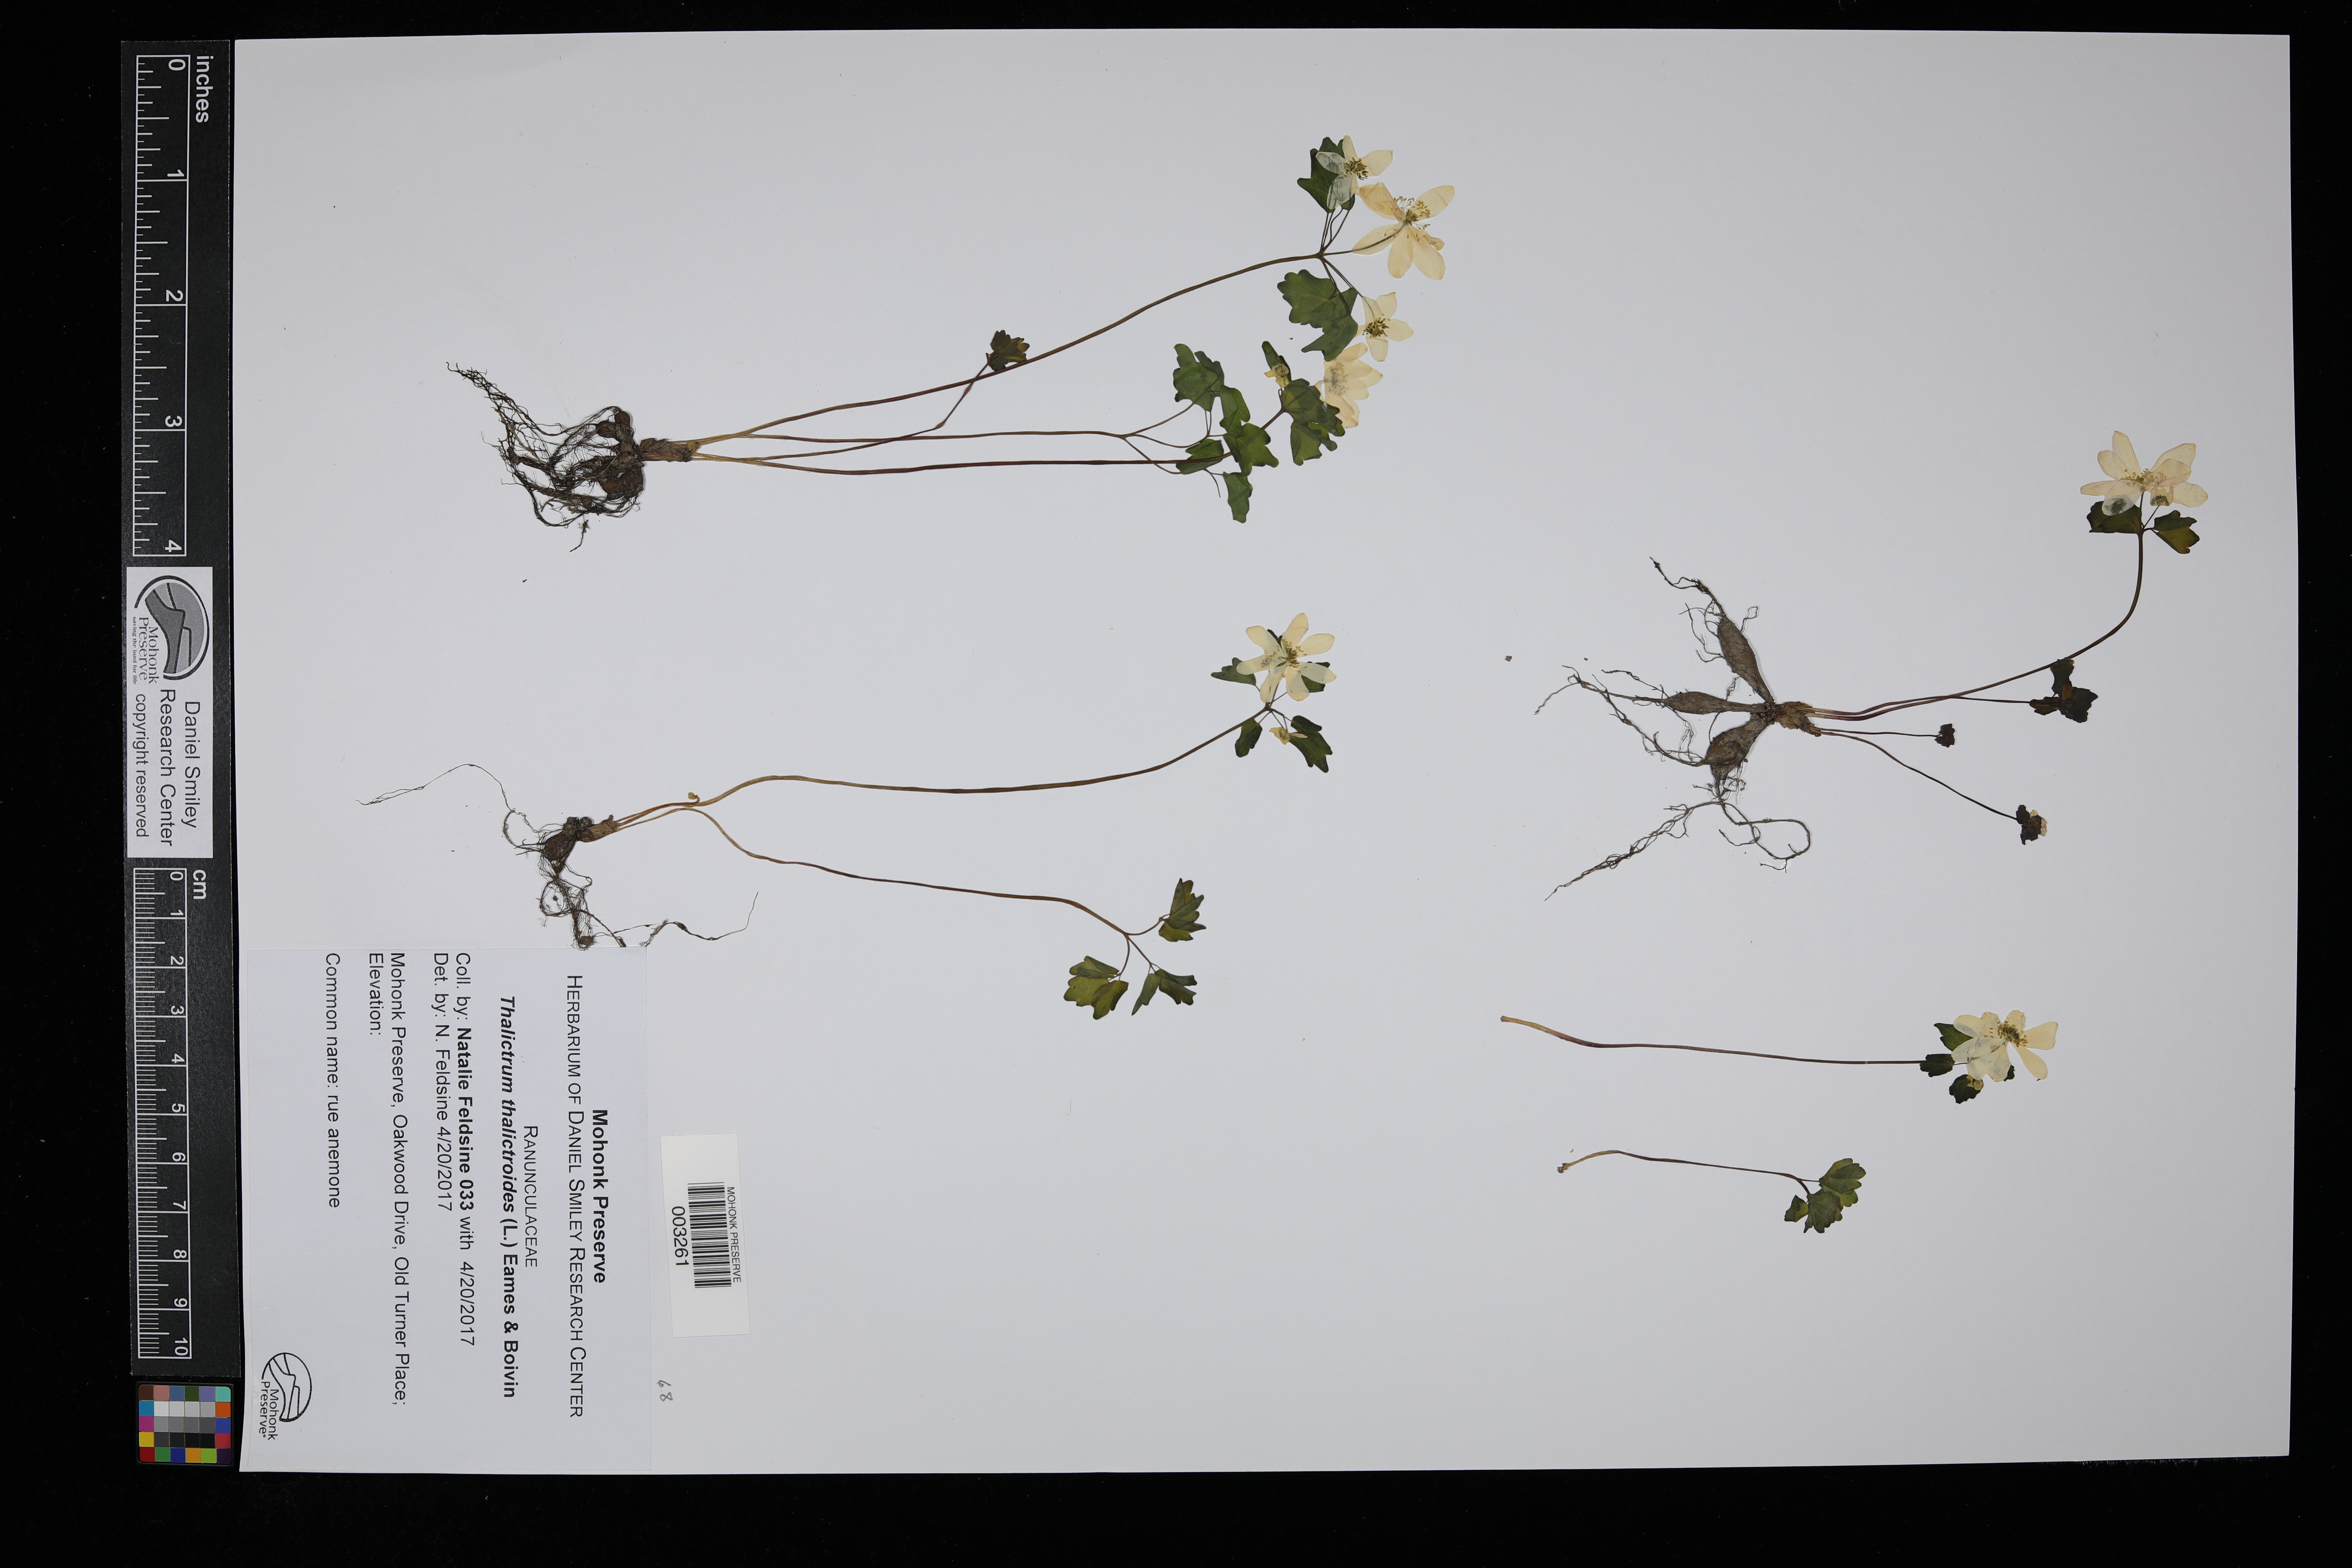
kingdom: Plantae
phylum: Tracheophyta
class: Magnoliopsida
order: Ranunculales
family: Ranunculaceae
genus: Thalictrum
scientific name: Thalictrum thalictroides
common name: Rue-anemone
